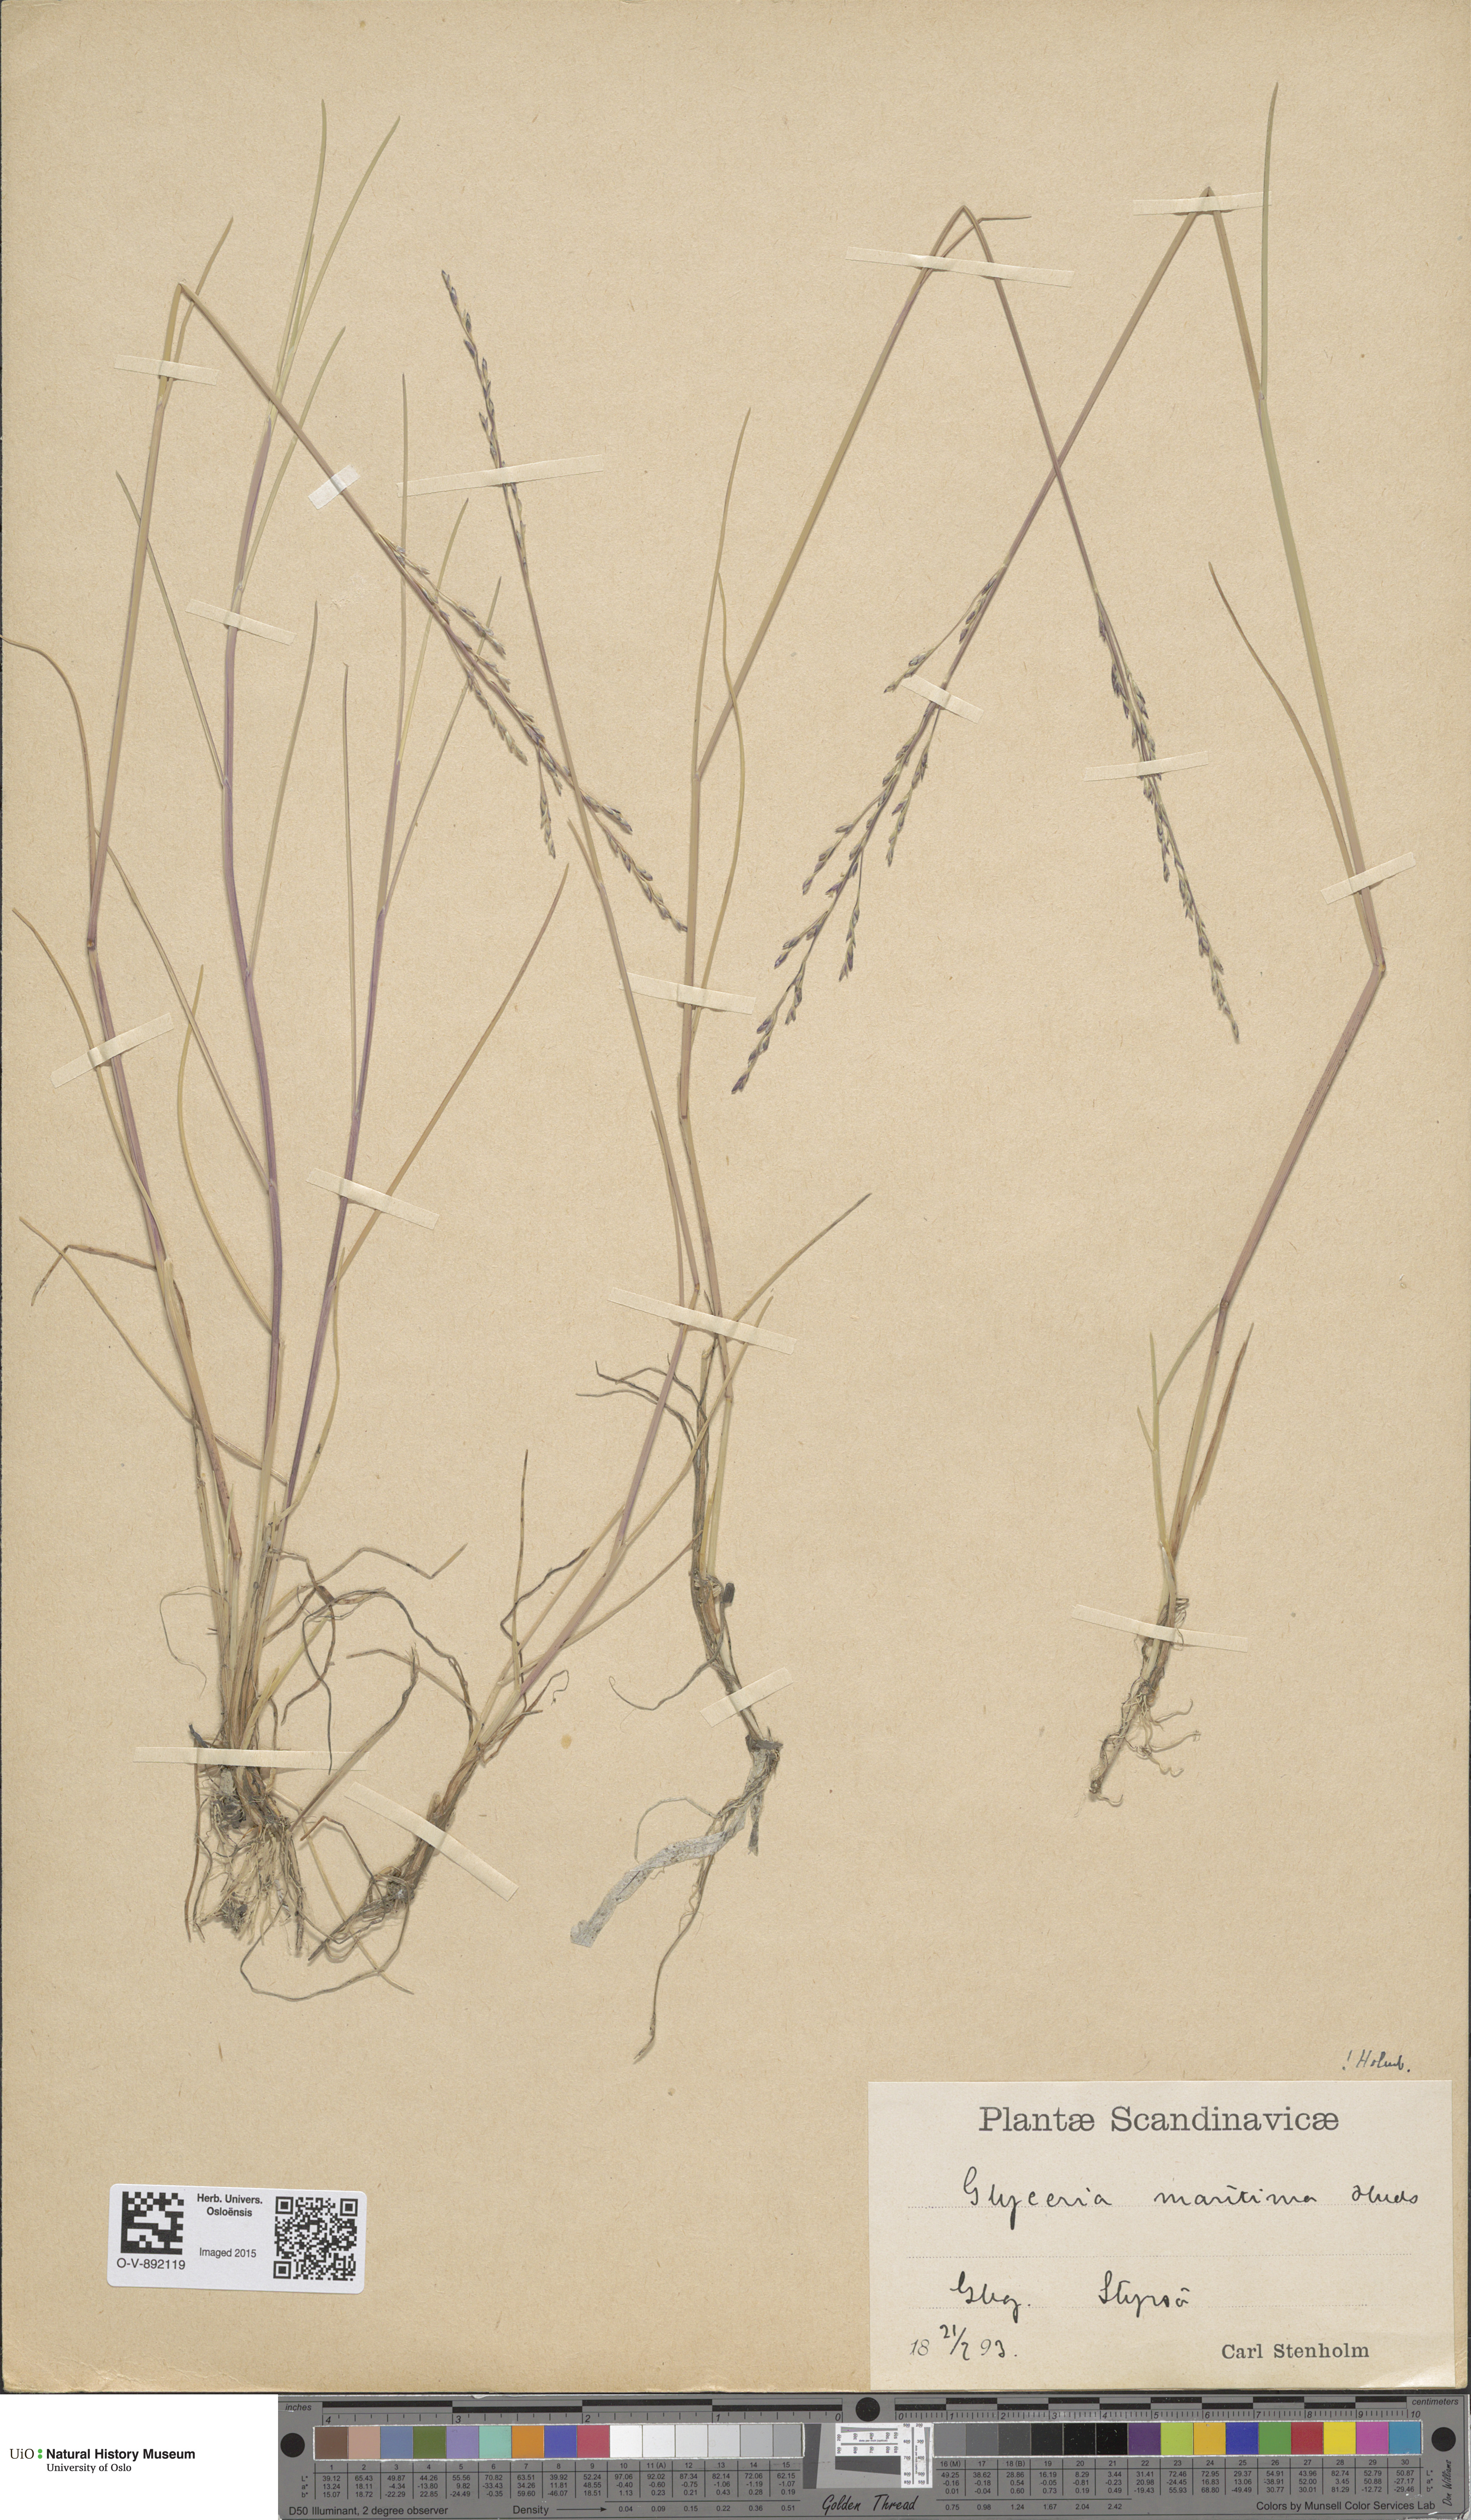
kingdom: Plantae
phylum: Tracheophyta
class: Liliopsida
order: Poales
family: Poaceae
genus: Puccinellia
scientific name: Puccinellia maritima
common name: Common saltmarsh grass
